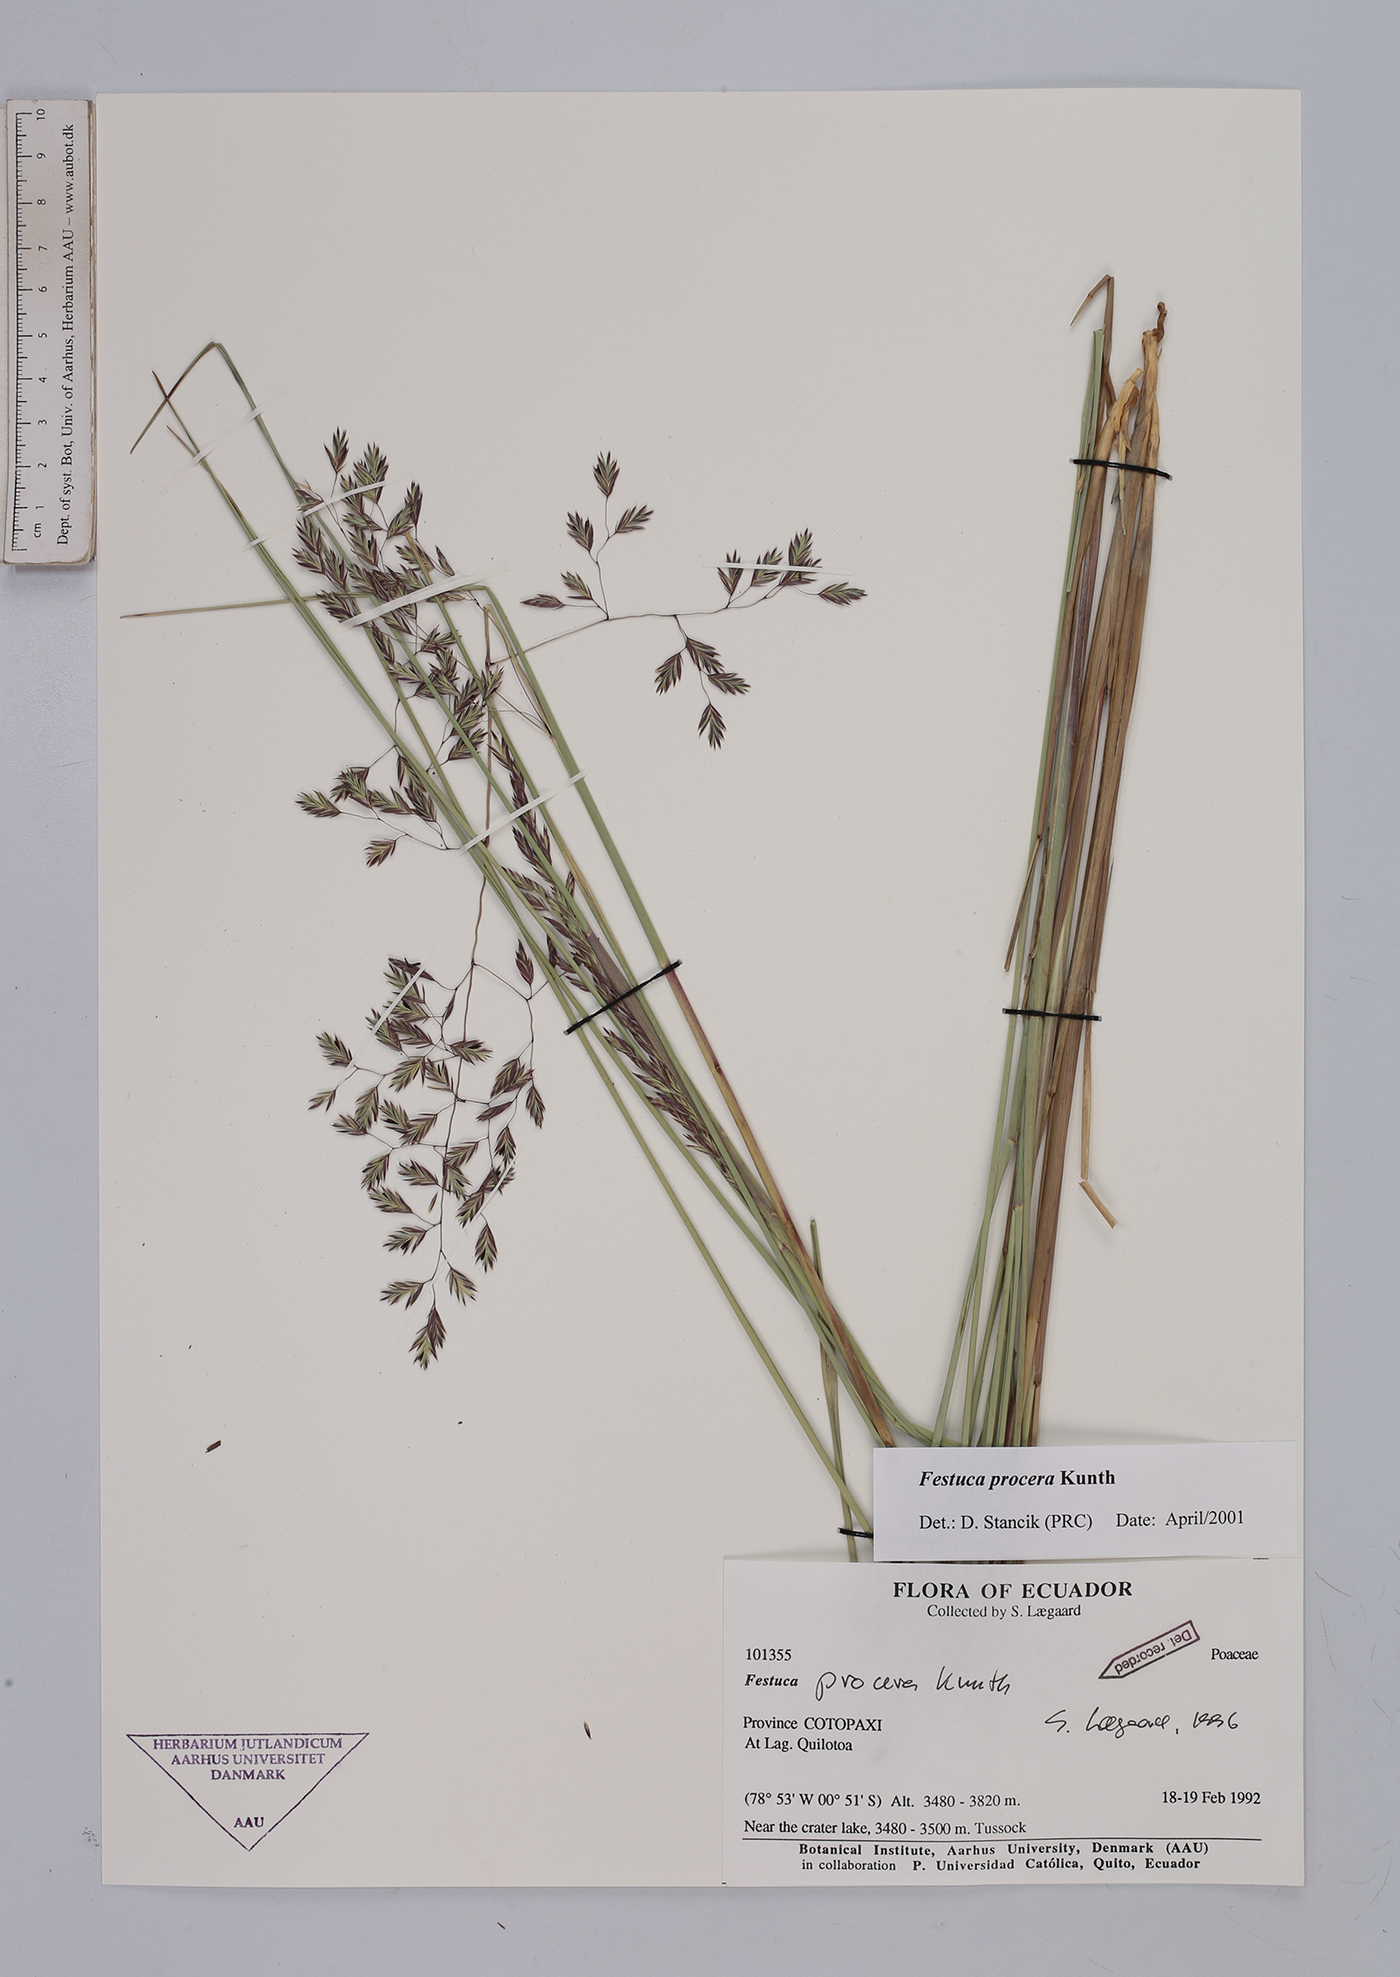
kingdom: Plantae
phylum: Tracheophyta
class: Liliopsida
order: Poales
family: Poaceae
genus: Festuca
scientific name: Festuca procera
